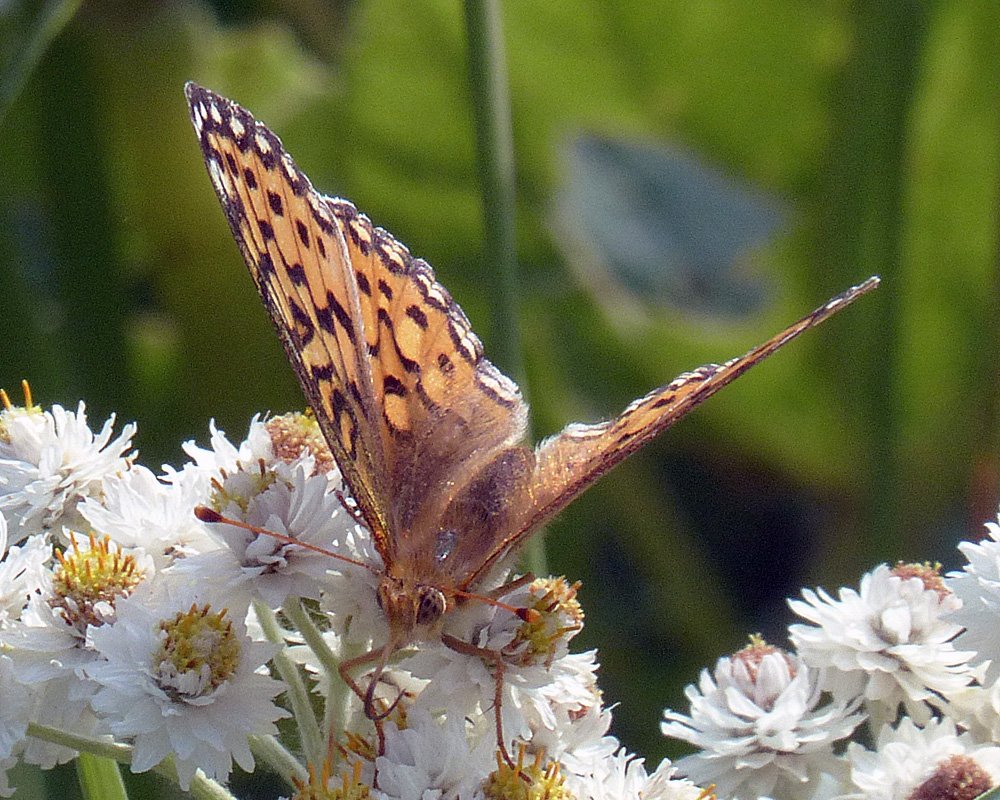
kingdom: Animalia
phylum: Arthropoda
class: Insecta
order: Lepidoptera
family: Nymphalidae
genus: Speyeria
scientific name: Speyeria mormonia
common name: Mormon Fritillary
